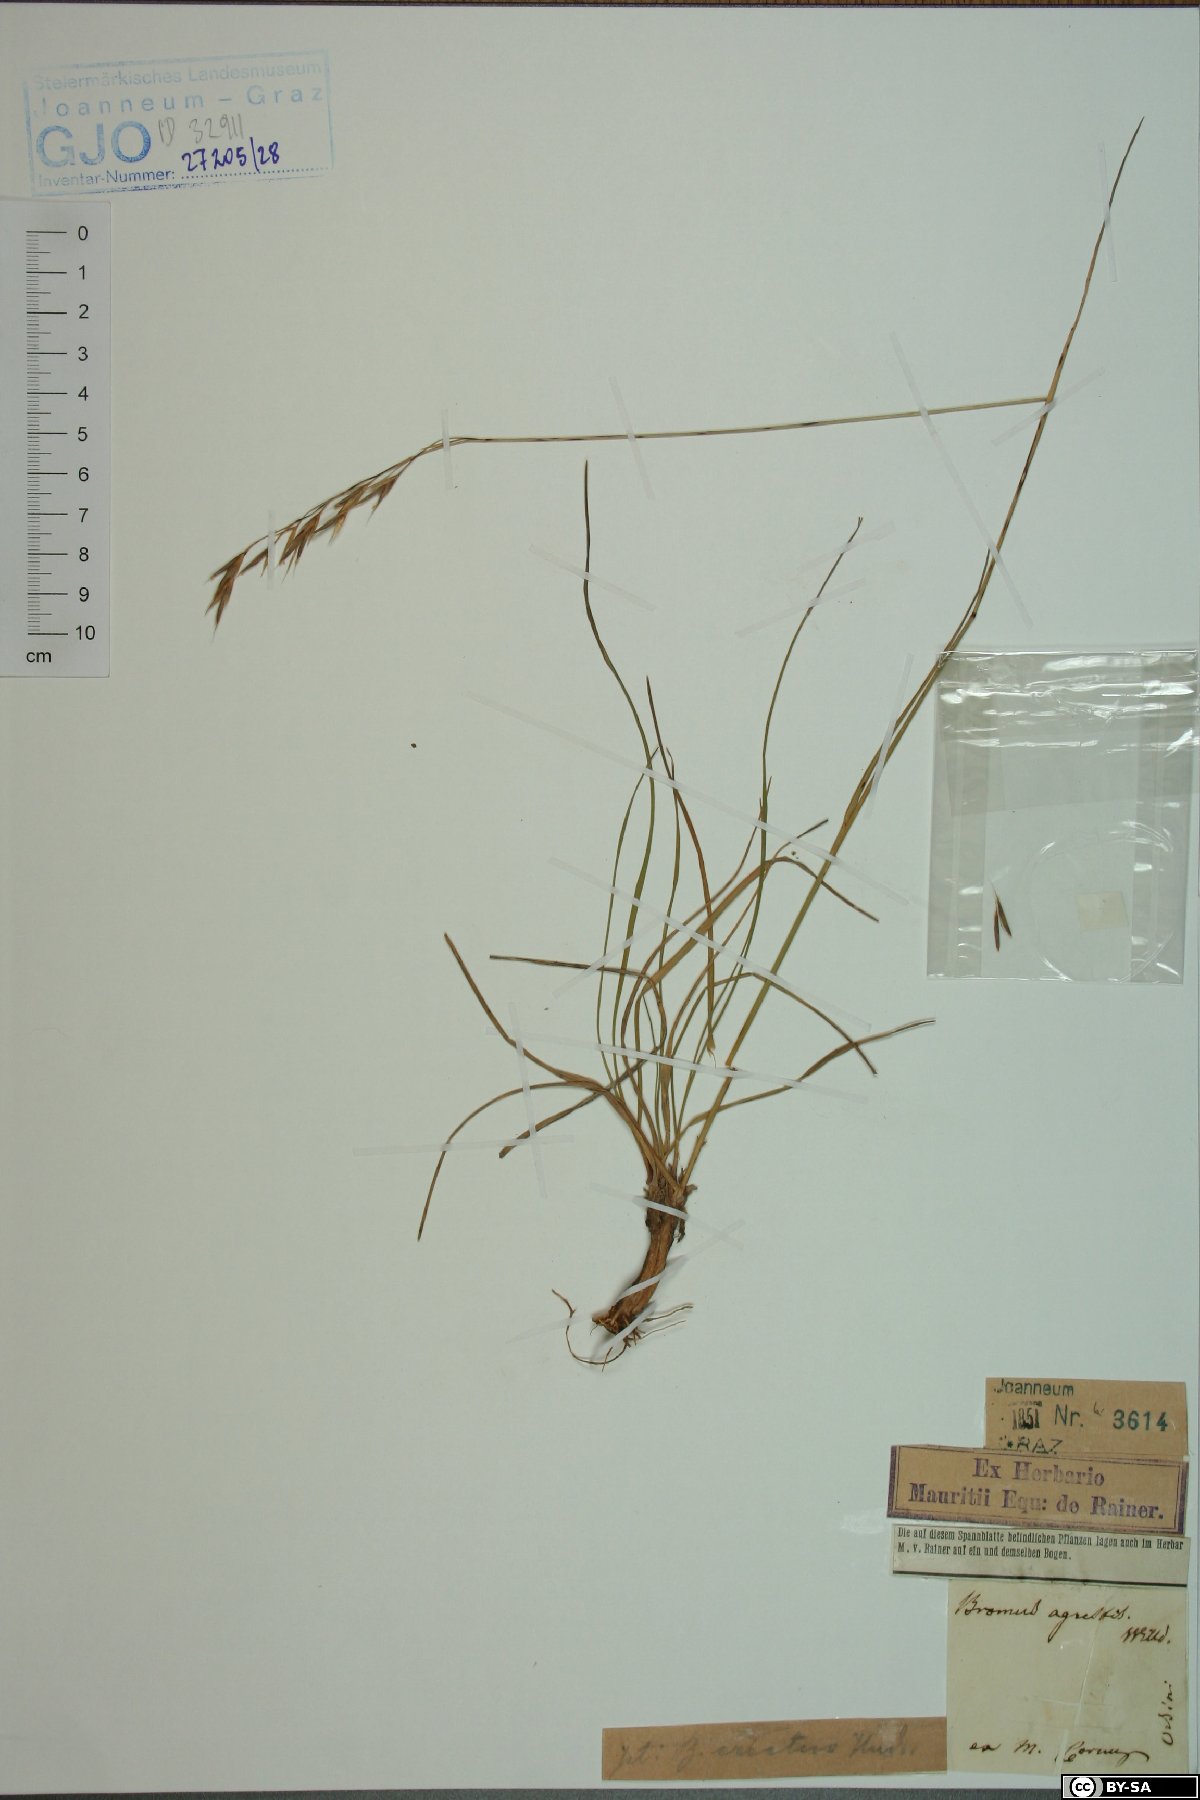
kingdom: Plantae
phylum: Tracheophyta
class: Liliopsida
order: Poales
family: Poaceae
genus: Bromus
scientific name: Bromus erectus
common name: Erect brome
